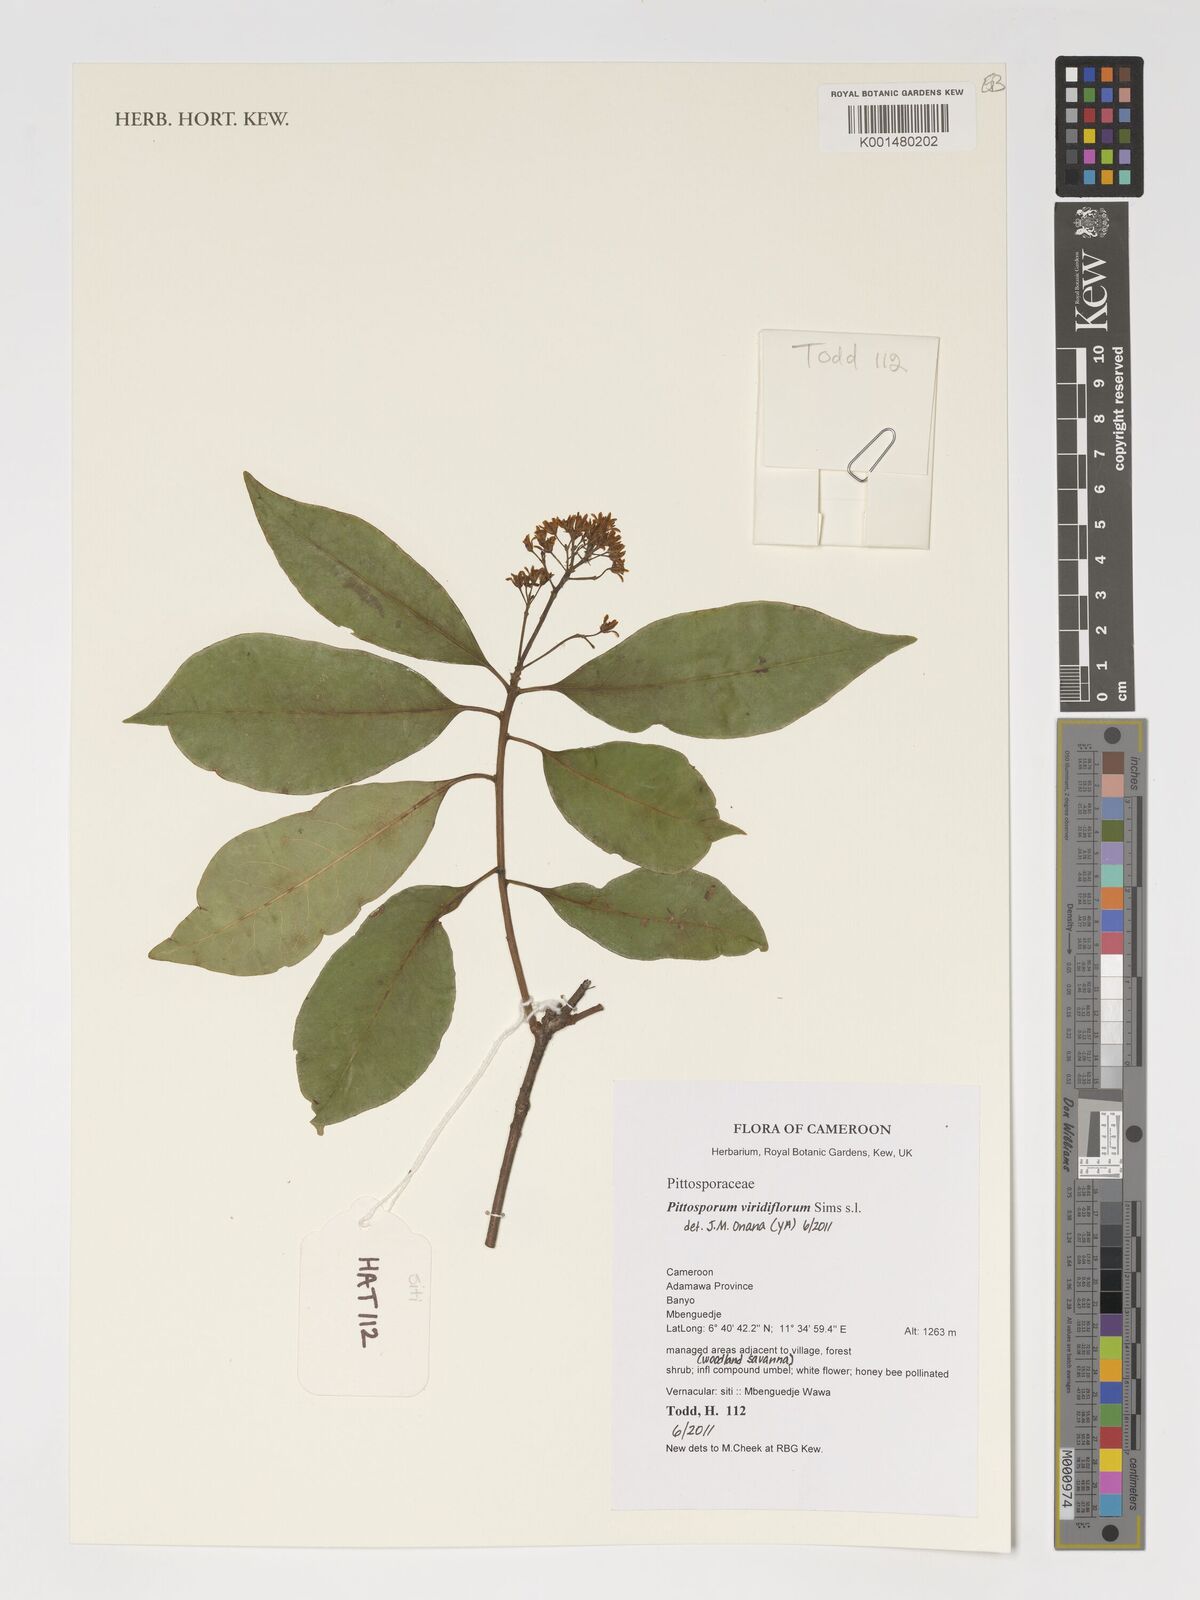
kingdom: Plantae
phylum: Tracheophyta
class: Magnoliopsida
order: Apiales
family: Pittosporaceae
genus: Pittosporum
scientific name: Pittosporum viridiflorum
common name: Cape cheesewood
